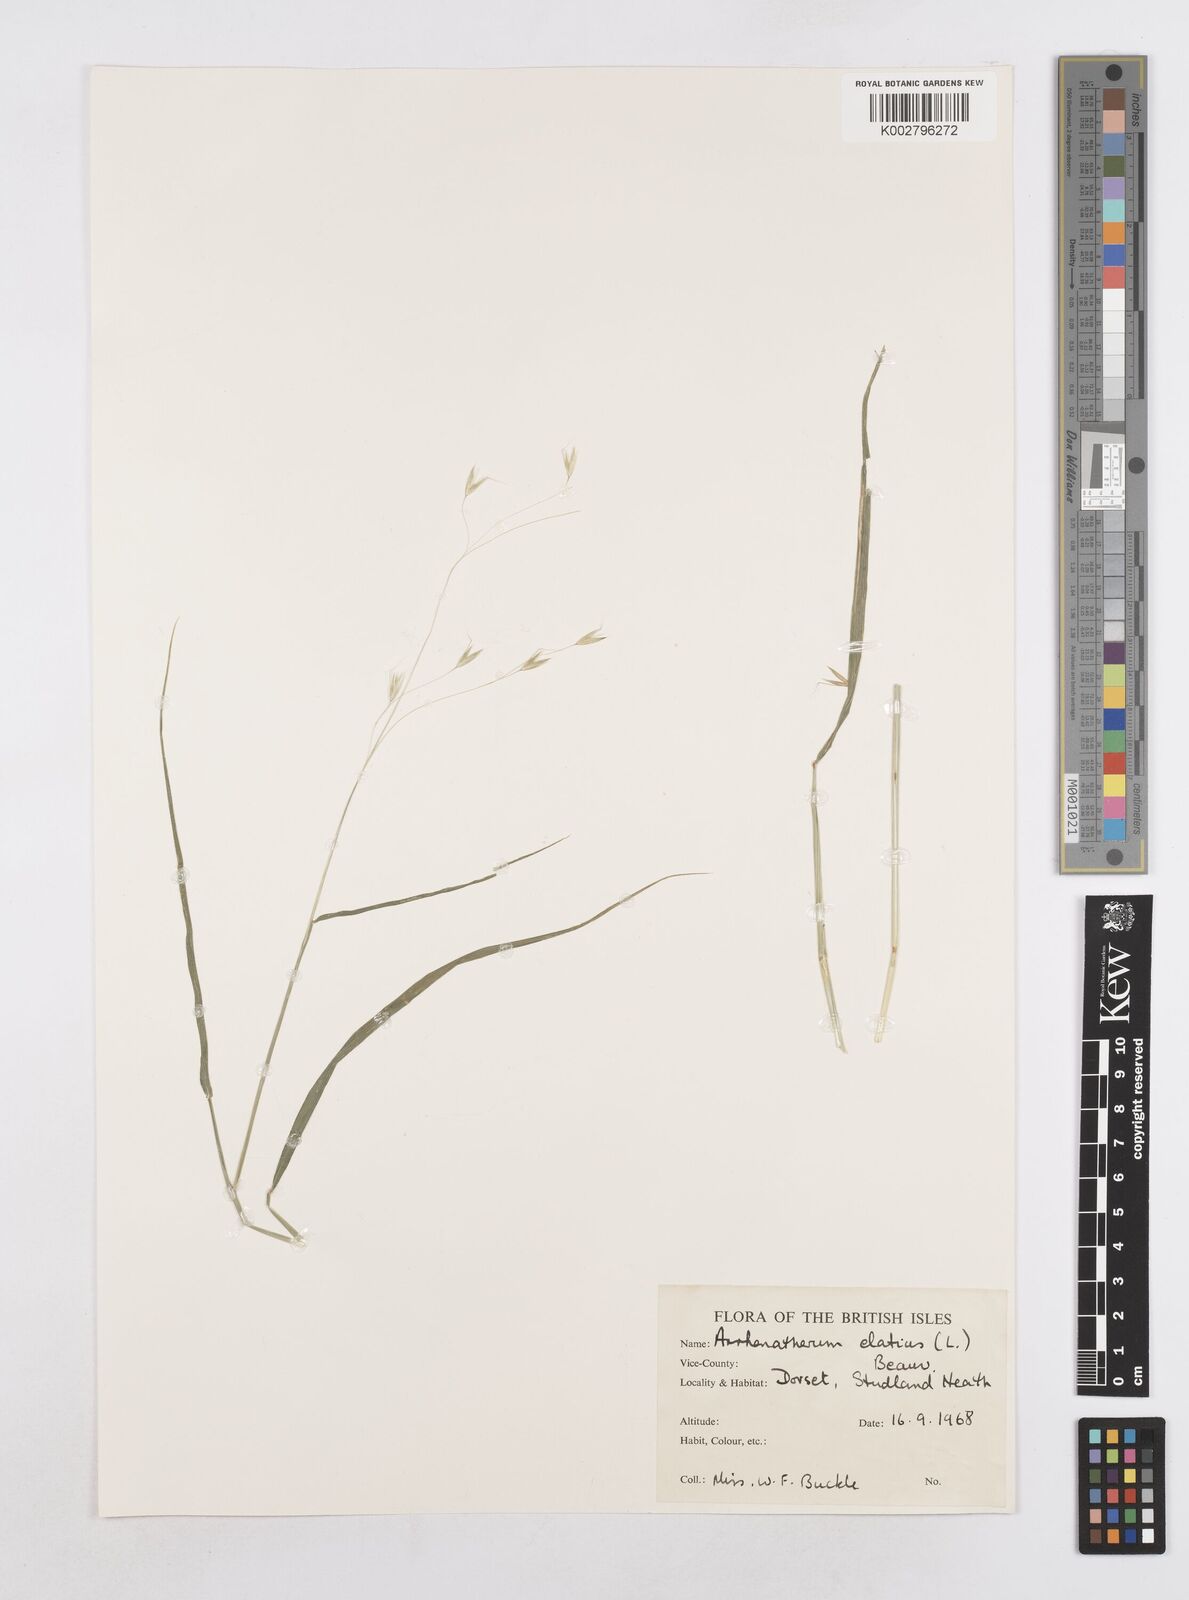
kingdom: Plantae
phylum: Tracheophyta
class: Liliopsida
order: Poales
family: Poaceae
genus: Arrhenatherum
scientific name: Arrhenatherum elatius
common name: Tall oatgrass
